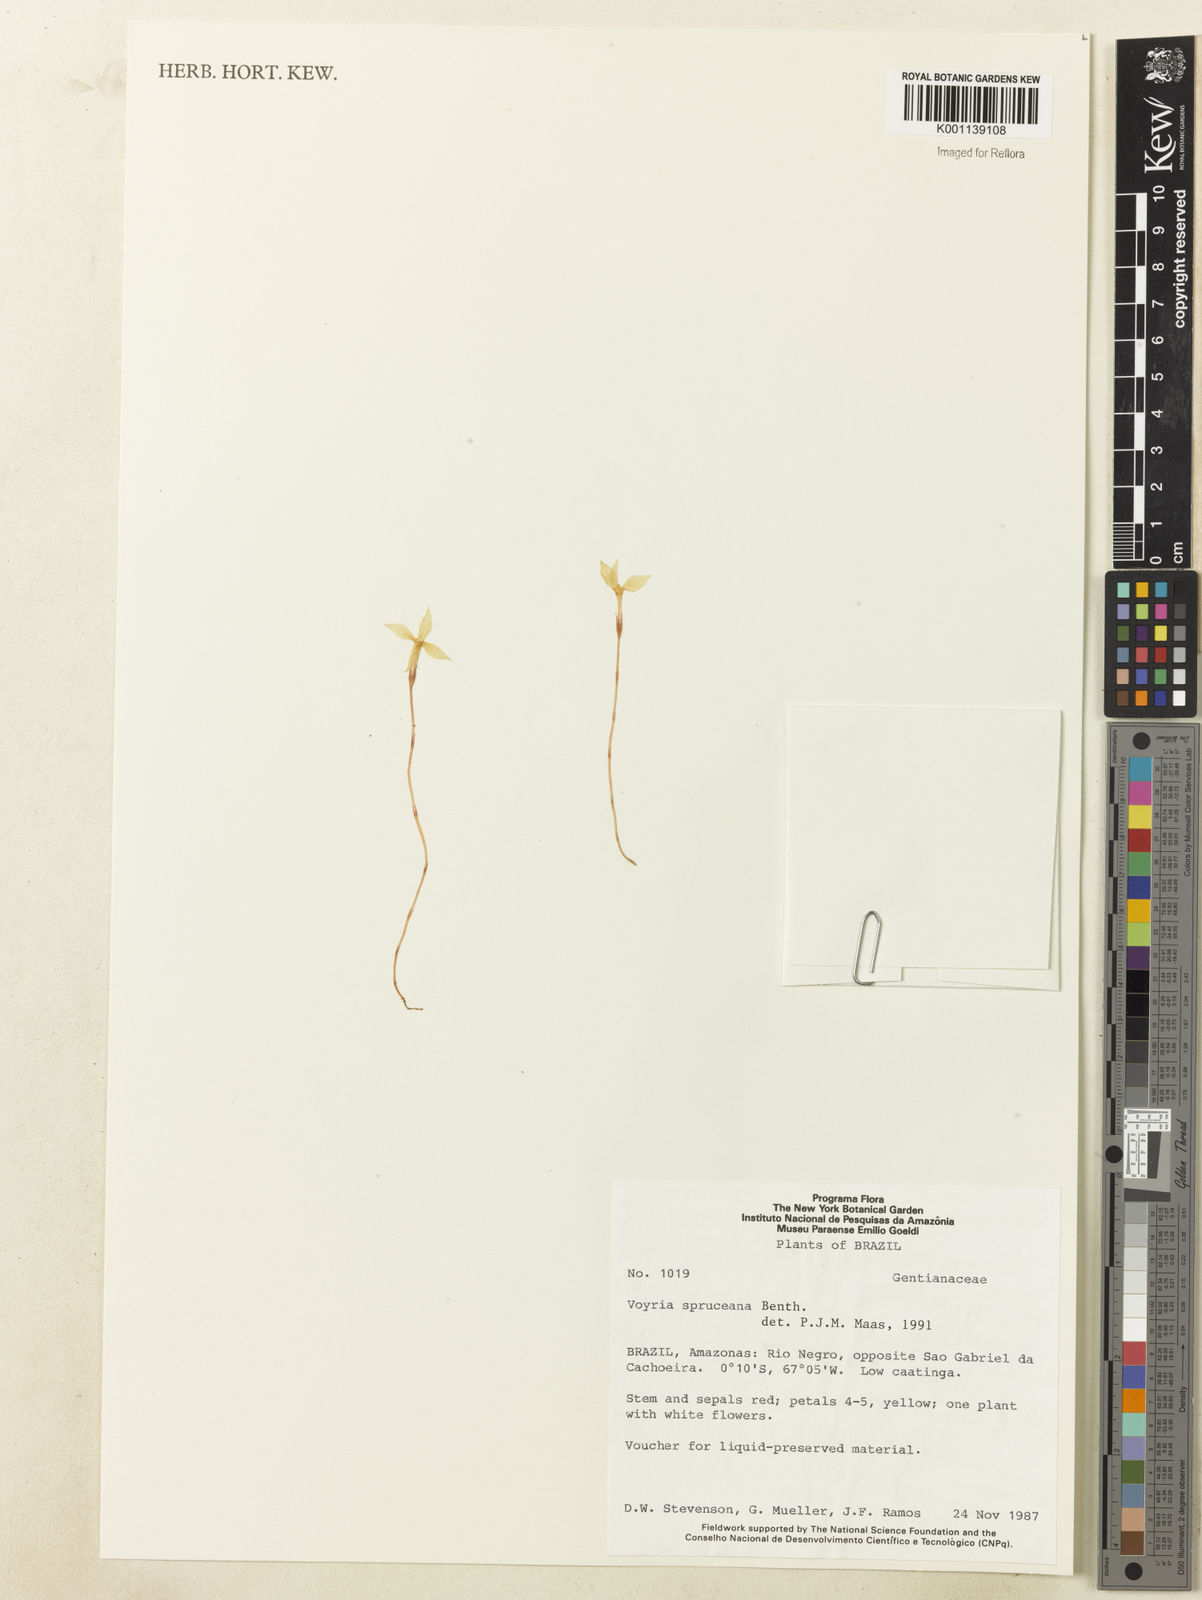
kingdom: Plantae
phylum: Tracheophyta
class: Magnoliopsida
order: Gentianales
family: Gentianaceae
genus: Voyria
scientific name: Voyria spruceana
